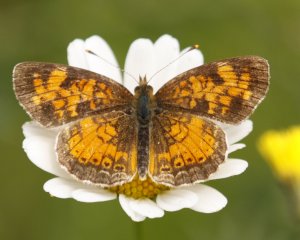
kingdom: Animalia
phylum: Arthropoda
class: Insecta
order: Lepidoptera
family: Nymphalidae
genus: Phyciodes
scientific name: Phyciodes tharos
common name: Northern Crescent
